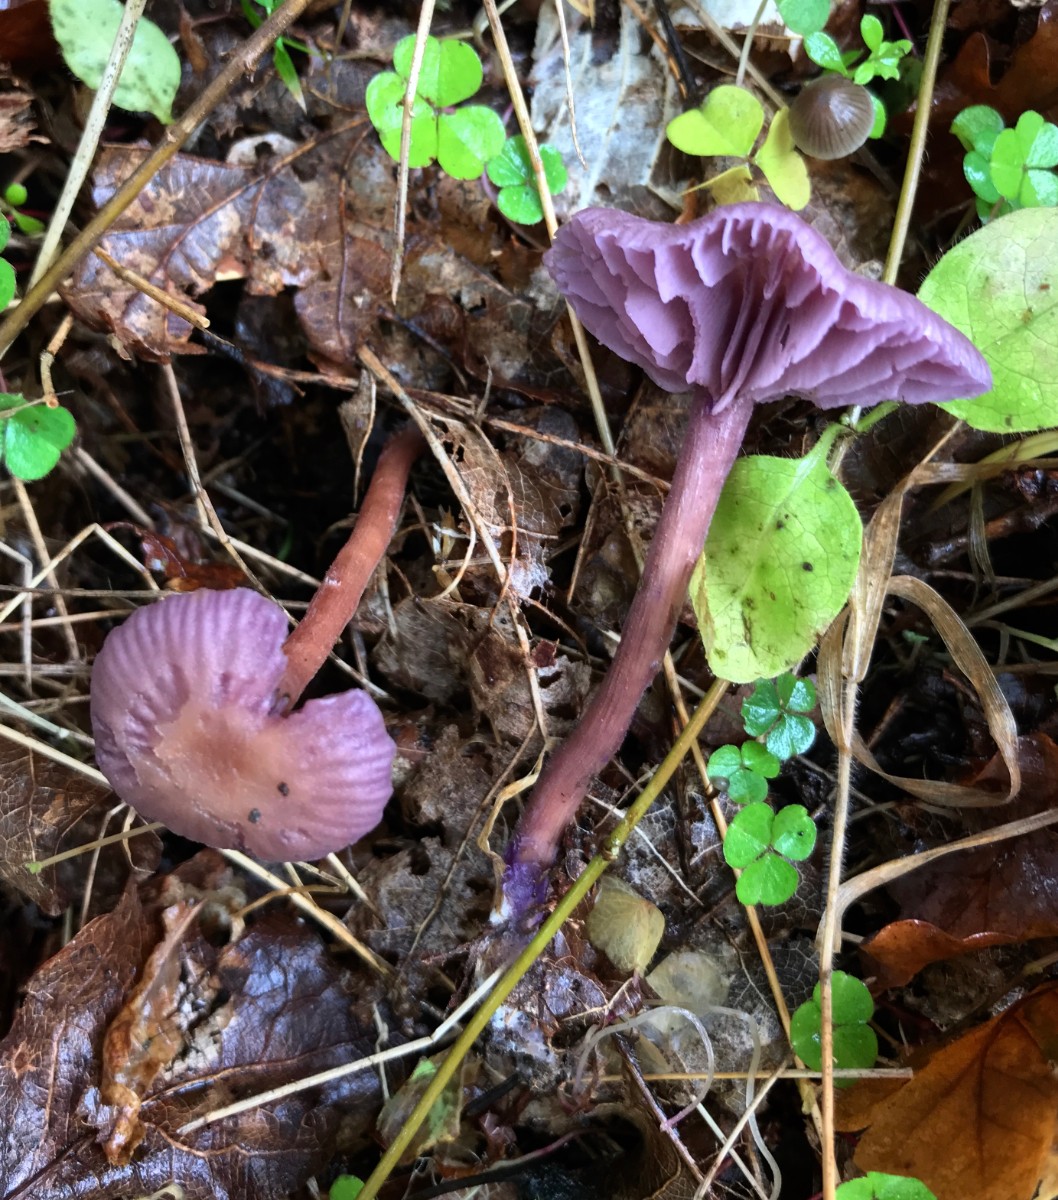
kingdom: Fungi
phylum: Basidiomycota
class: Agaricomycetes
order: Agaricales
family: Hydnangiaceae
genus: Laccaria
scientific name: Laccaria amethystina
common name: violet ametysthat
